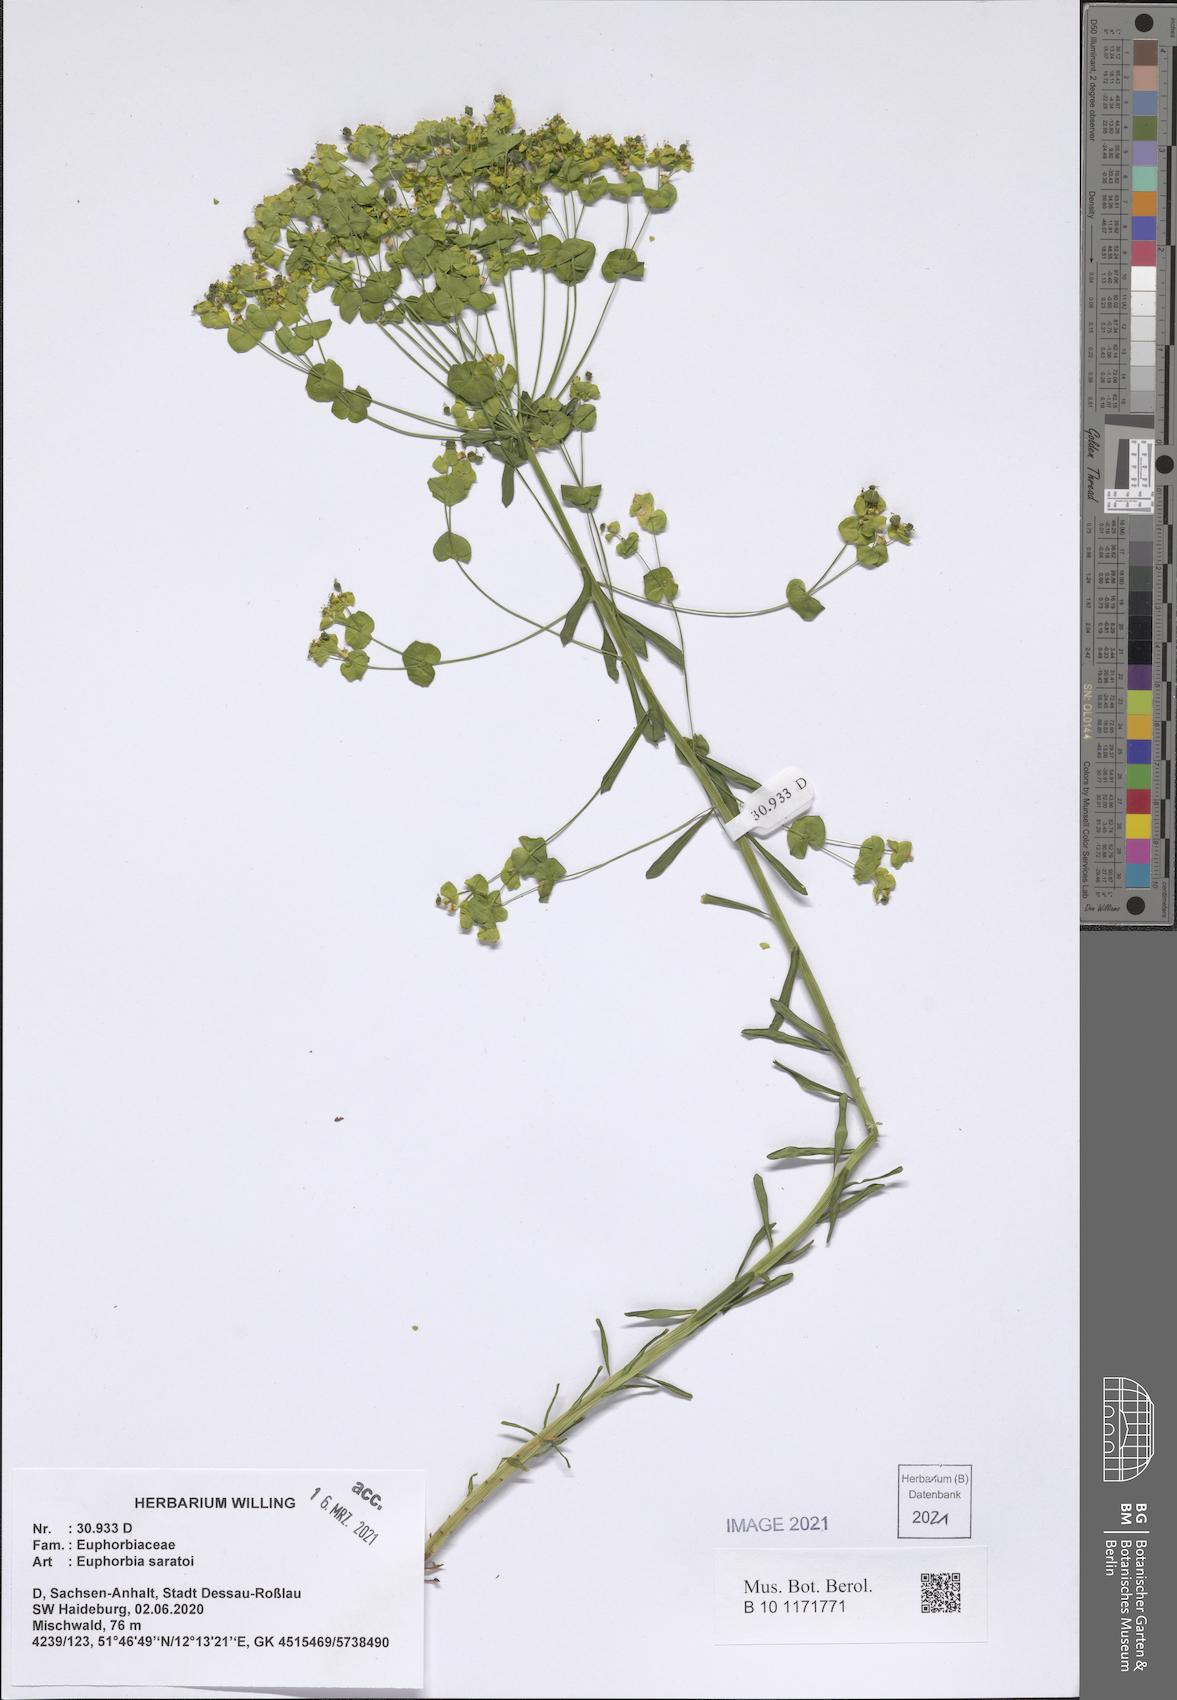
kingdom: Plantae
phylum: Tracheophyta
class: Magnoliopsida
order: Malpighiales
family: Euphorbiaceae
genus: Euphorbia
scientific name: Euphorbia saratoi
